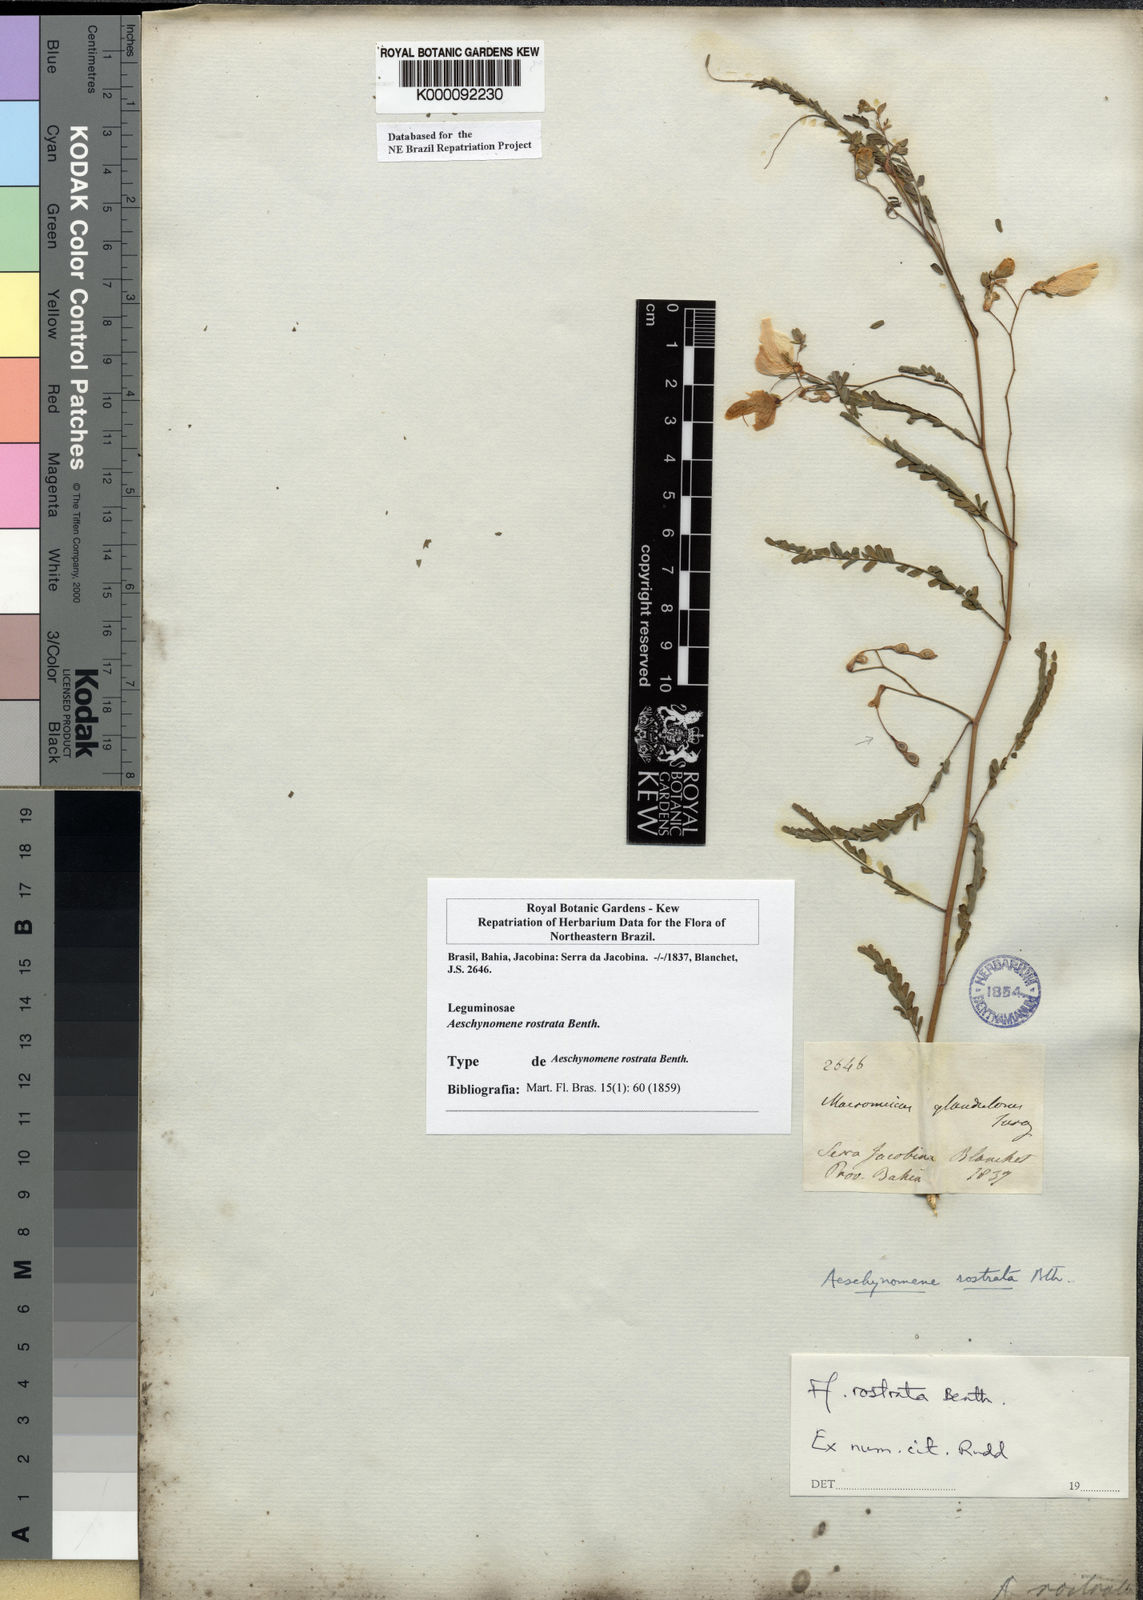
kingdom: Plantae
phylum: Tracheophyta
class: Magnoliopsida
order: Fabales
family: Fabaceae
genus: Aeschynomene
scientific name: Aeschynomene rostrata
